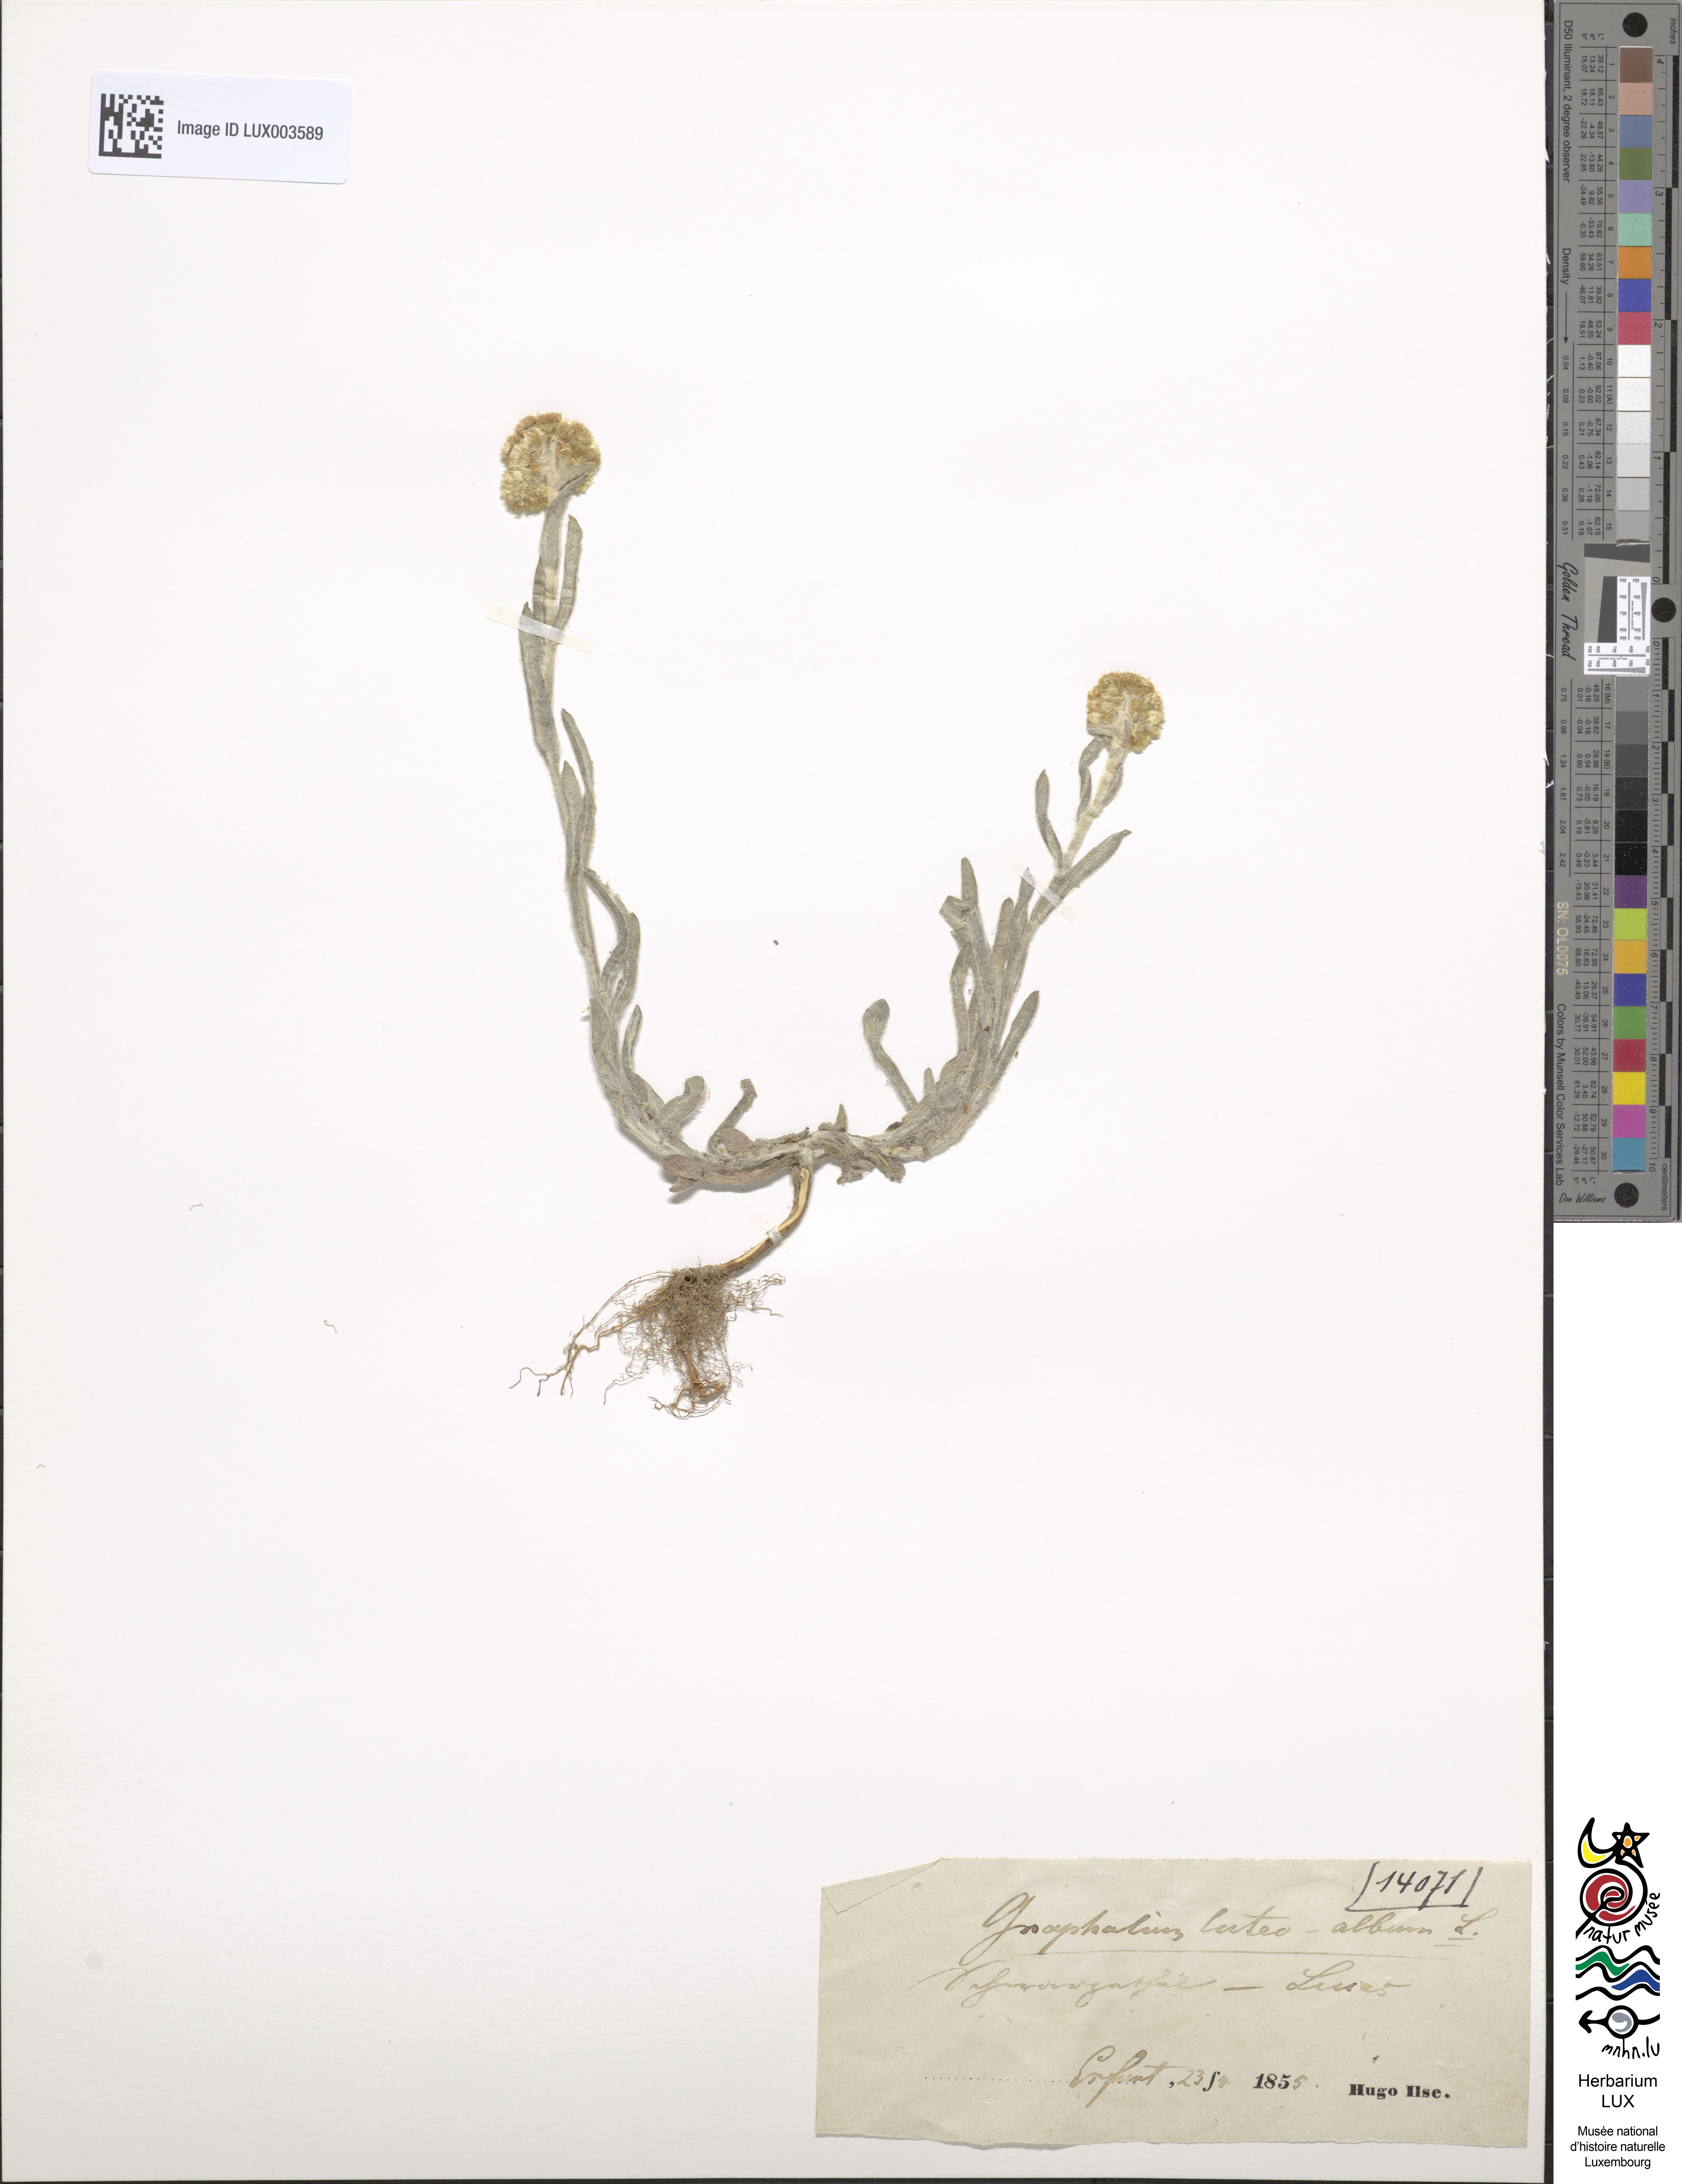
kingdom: Plantae
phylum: Tracheophyta
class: Magnoliopsida
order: Asterales
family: Asteraceae
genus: Helichrysum
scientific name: Helichrysum luteoalbum
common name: Daisy
